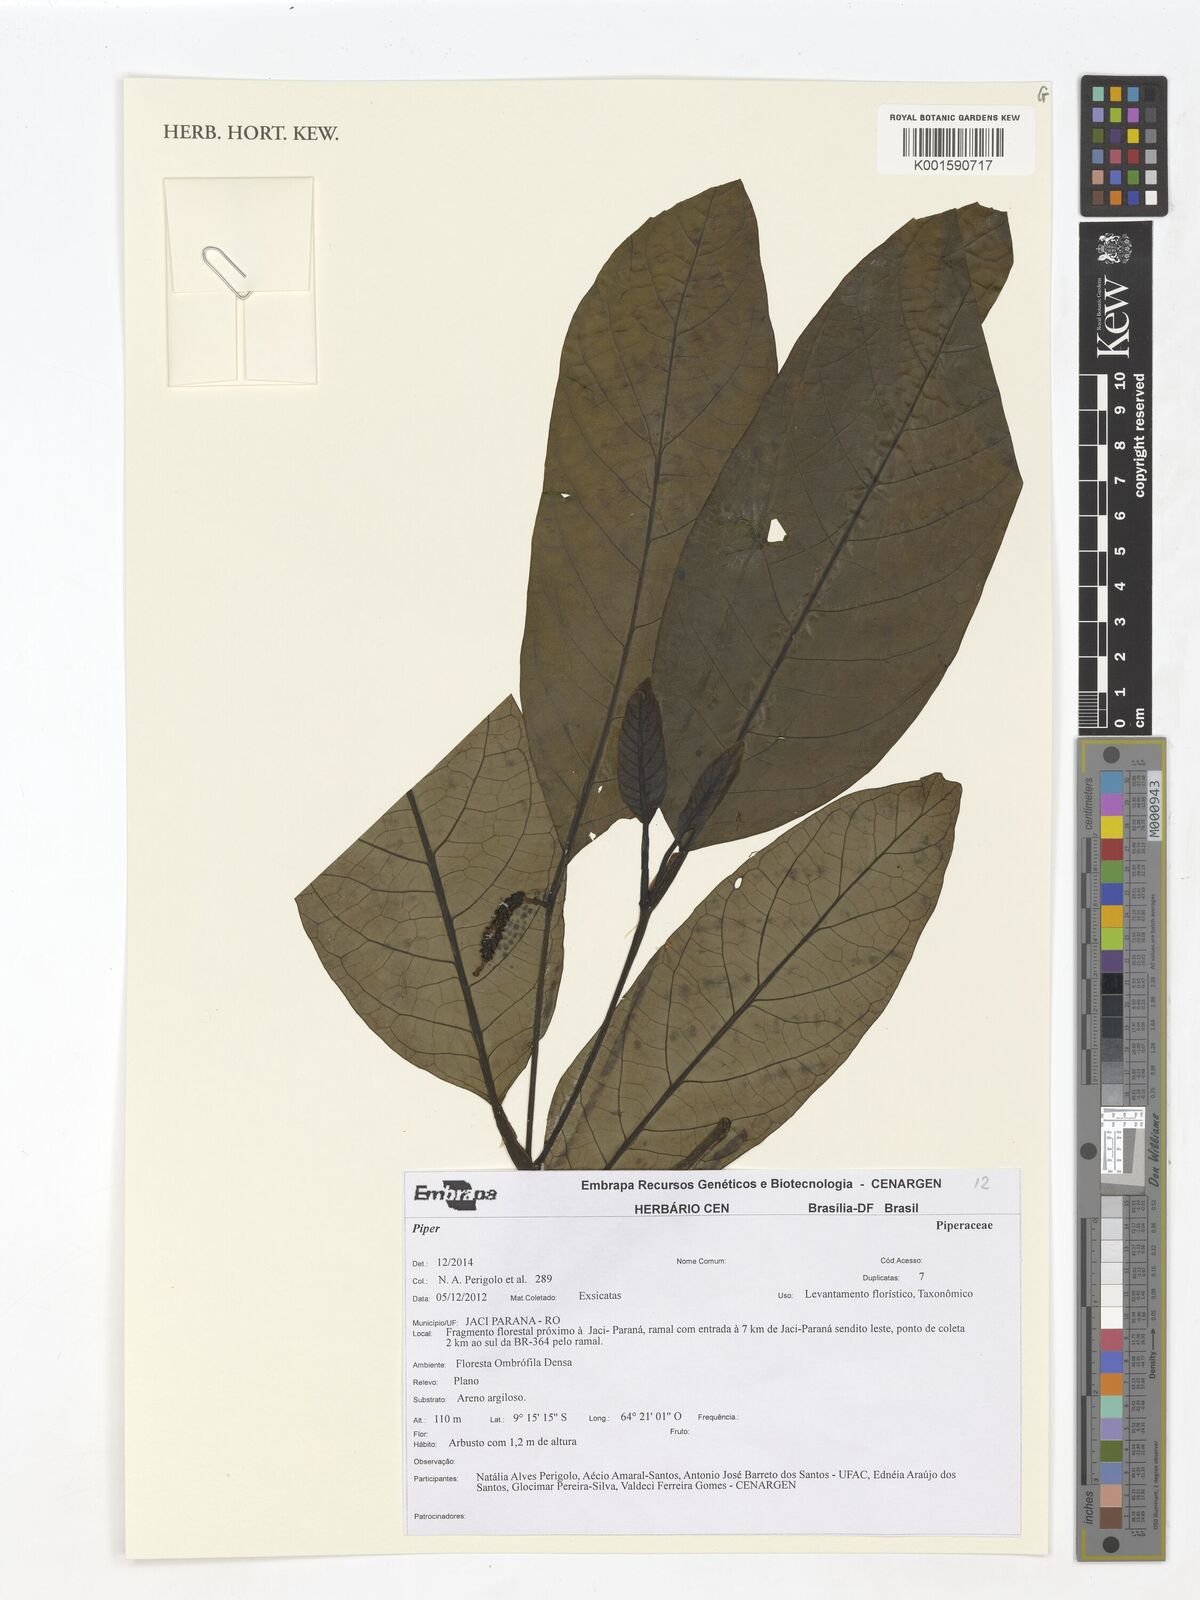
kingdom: Plantae
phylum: Tracheophyta
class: Magnoliopsida
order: Piperales
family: Piperaceae
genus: Piper
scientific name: Piper
